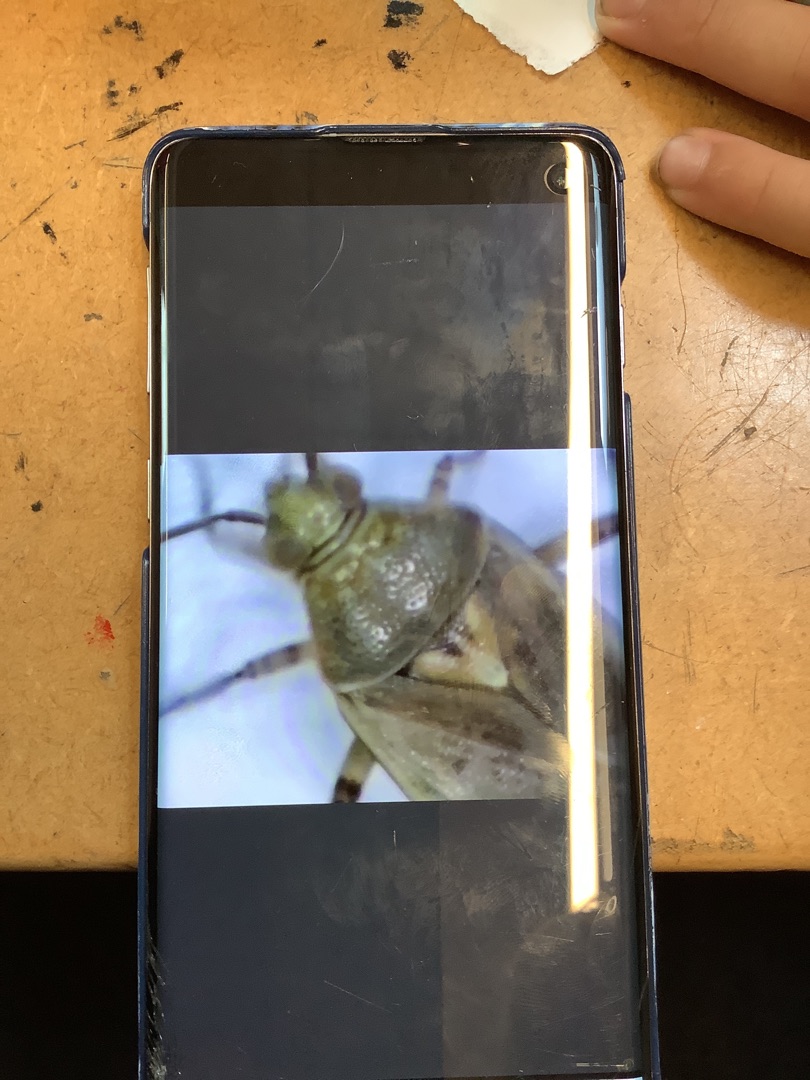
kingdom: Animalia
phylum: Arthropoda
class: Insecta
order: Hemiptera
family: Miridae
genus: Lygus
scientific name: Lygus
